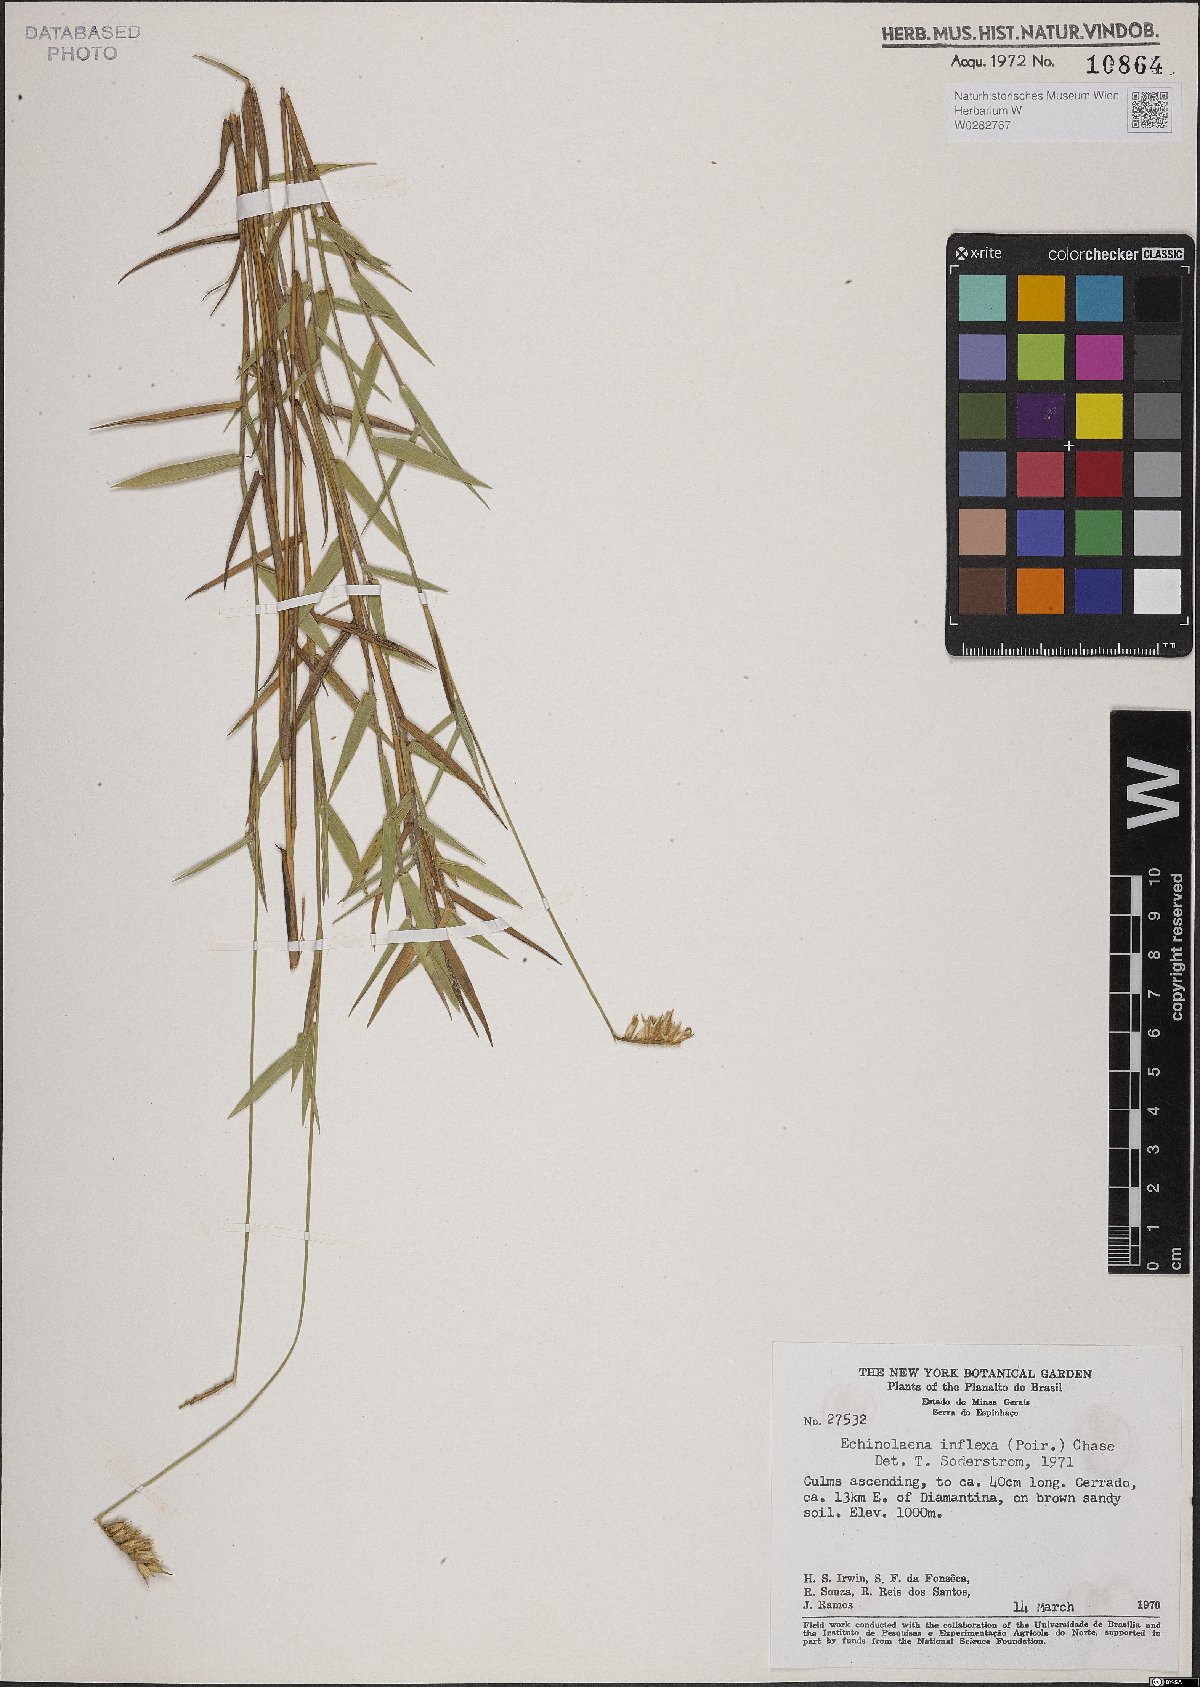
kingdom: Plantae
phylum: Tracheophyta
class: Liliopsida
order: Poales
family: Poaceae
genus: Echinolaena
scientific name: Echinolaena inflexa
